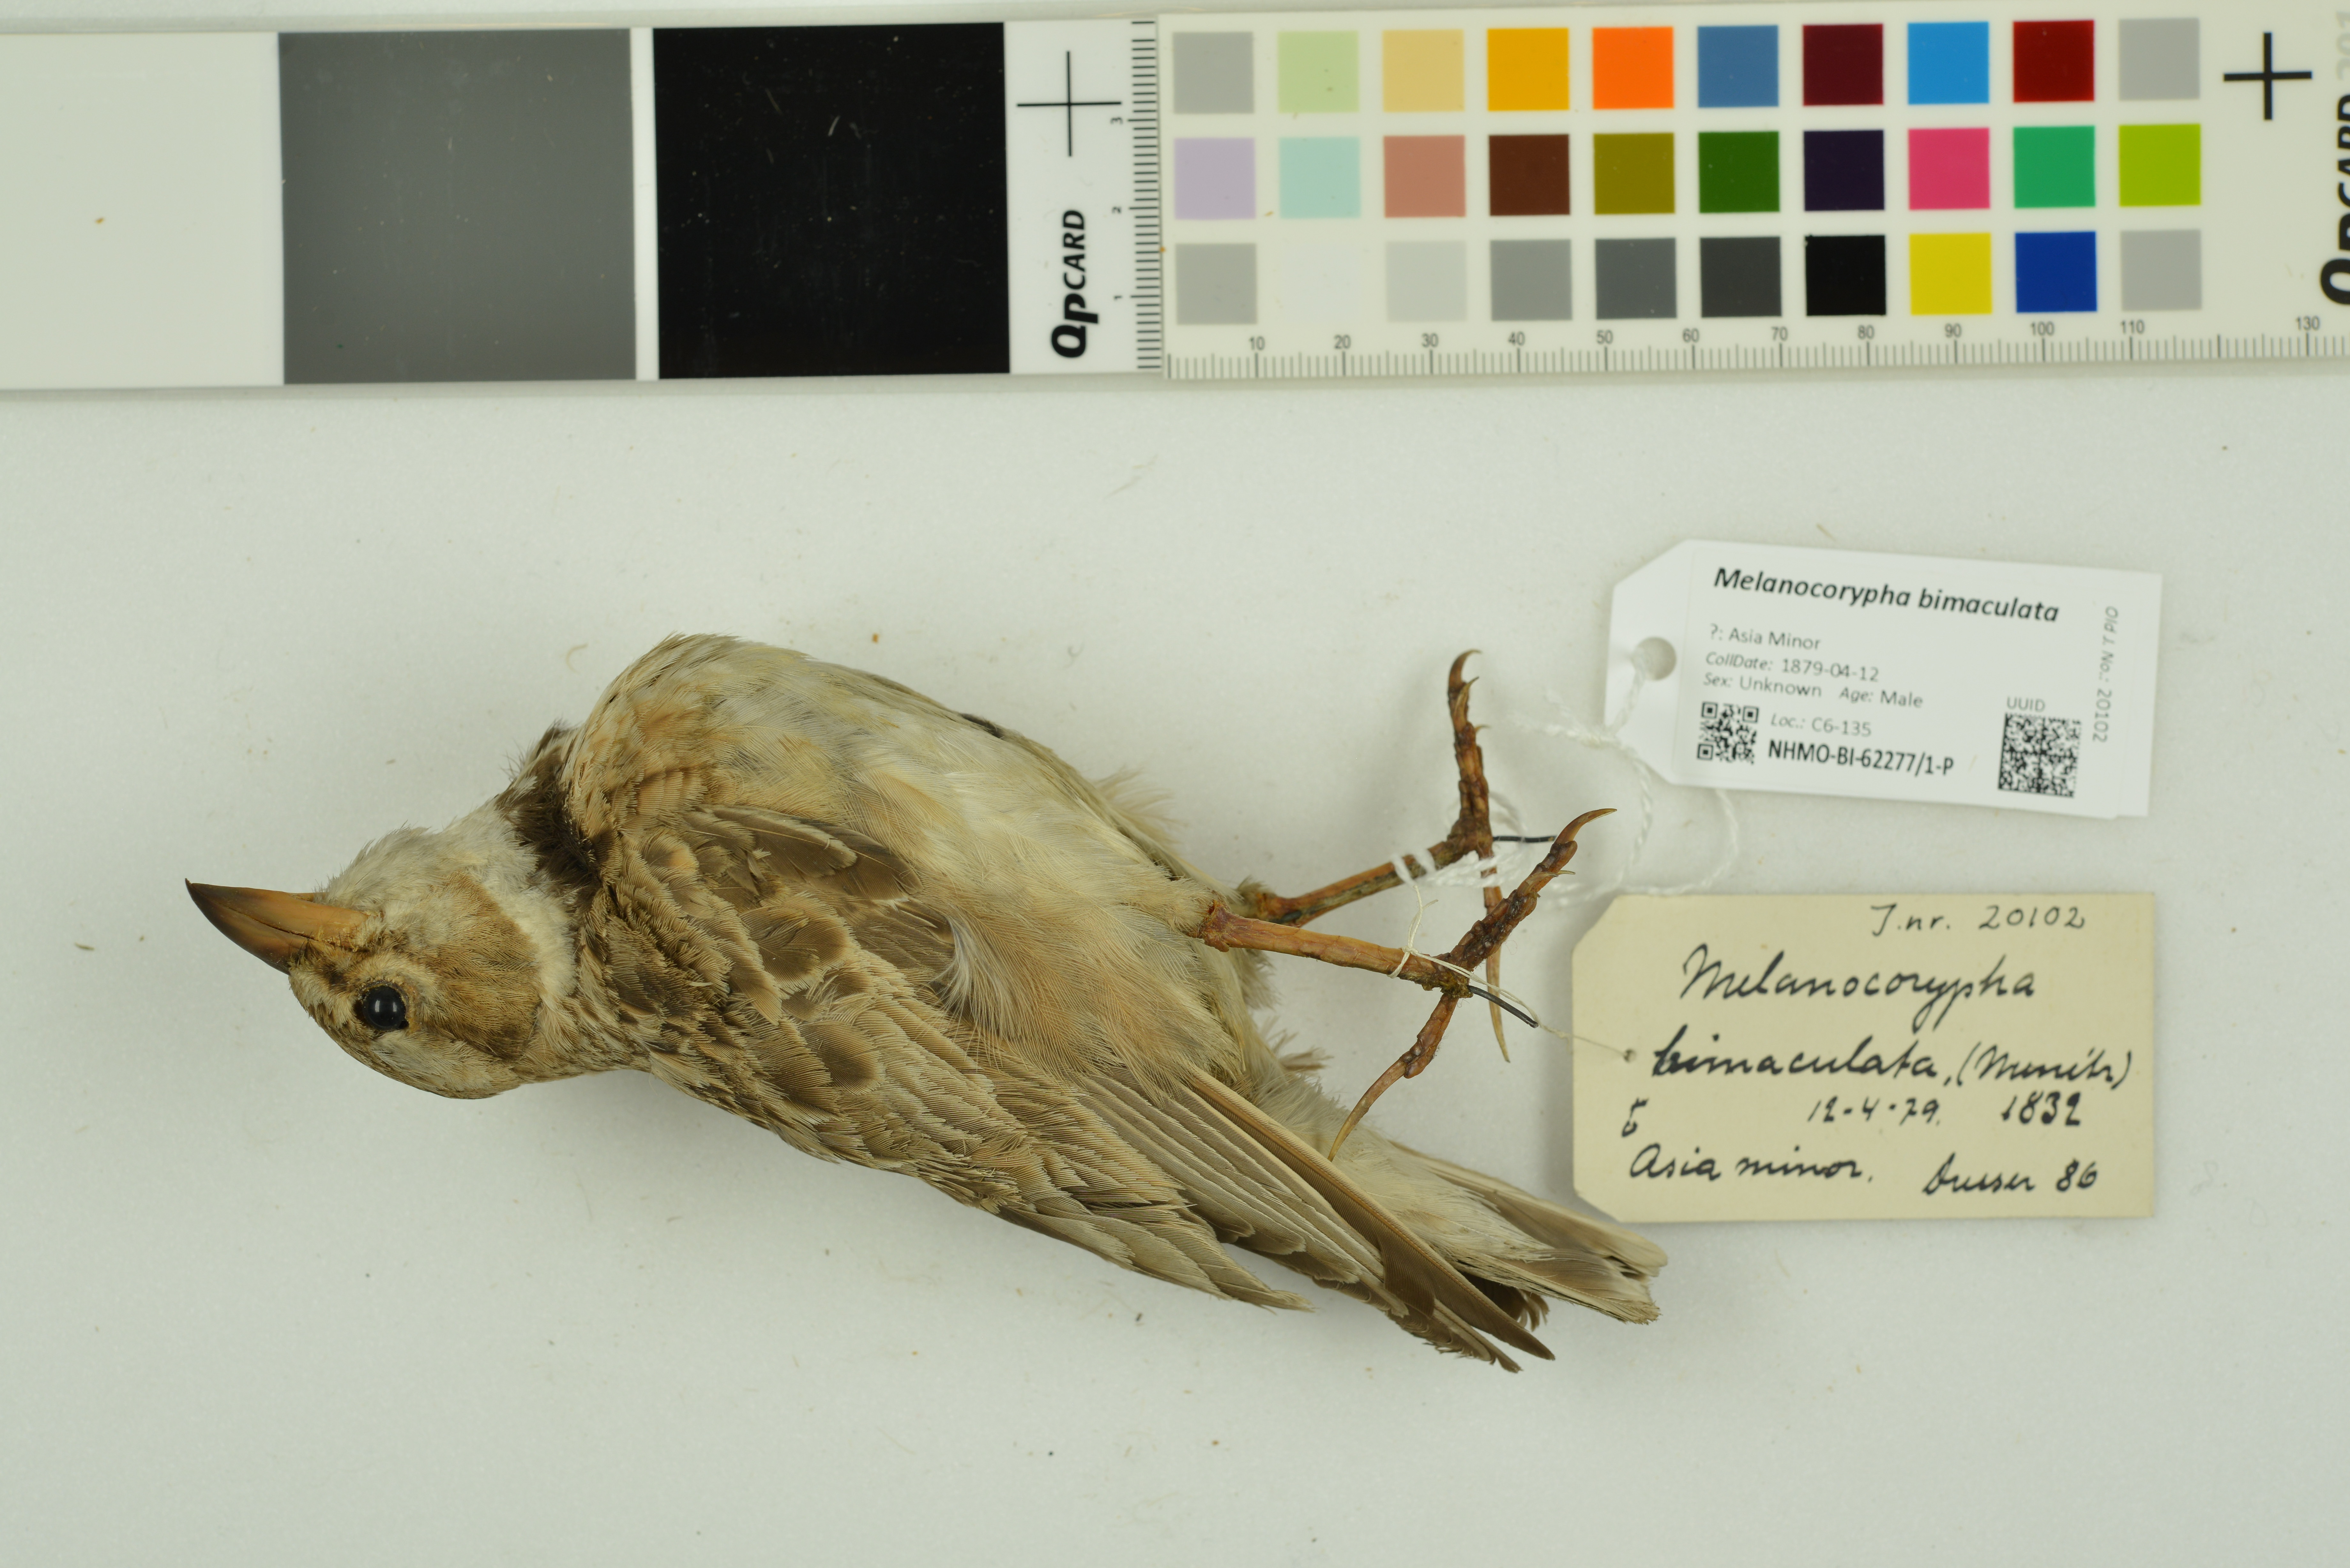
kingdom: Animalia
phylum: Chordata
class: Aves
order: Passeriformes
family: Alaudidae
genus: Melanocorypha
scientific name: Melanocorypha bimaculata
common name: Bimaculated lark
